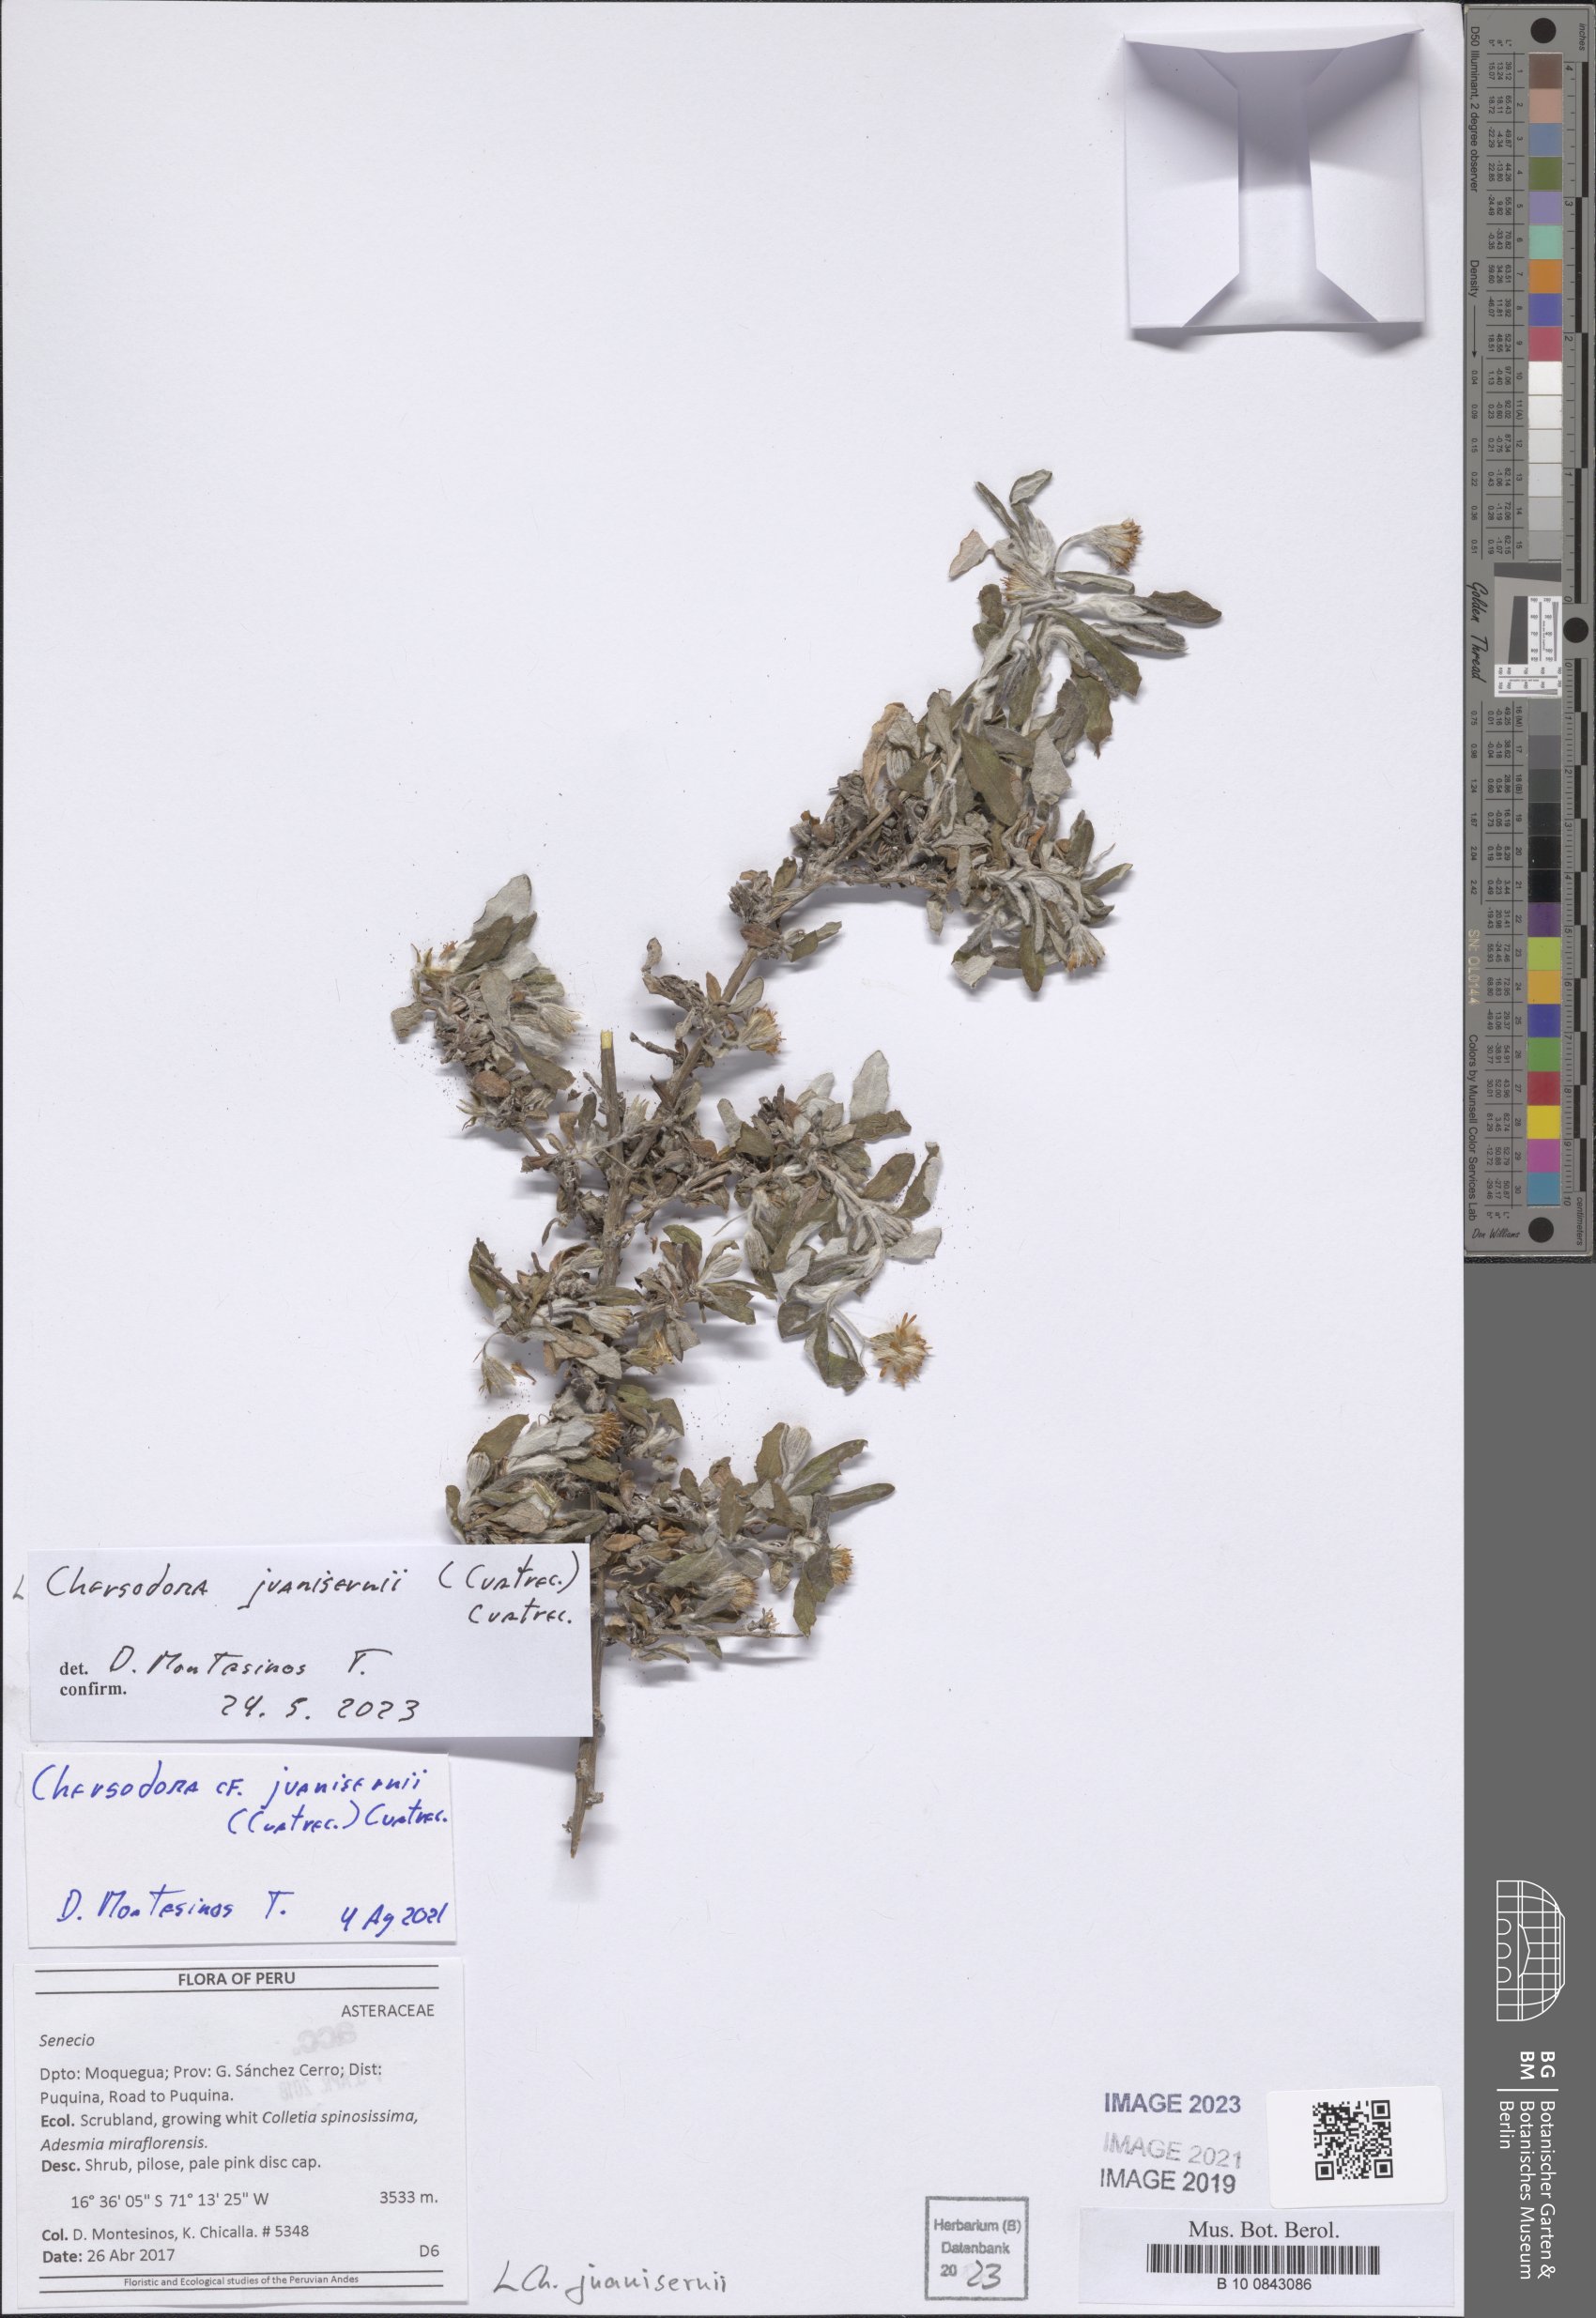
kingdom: Plantae
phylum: Tracheophyta
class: Magnoliopsida
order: Asterales
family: Asteraceae
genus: Chersodoma
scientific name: Chersodoma juanisernii
